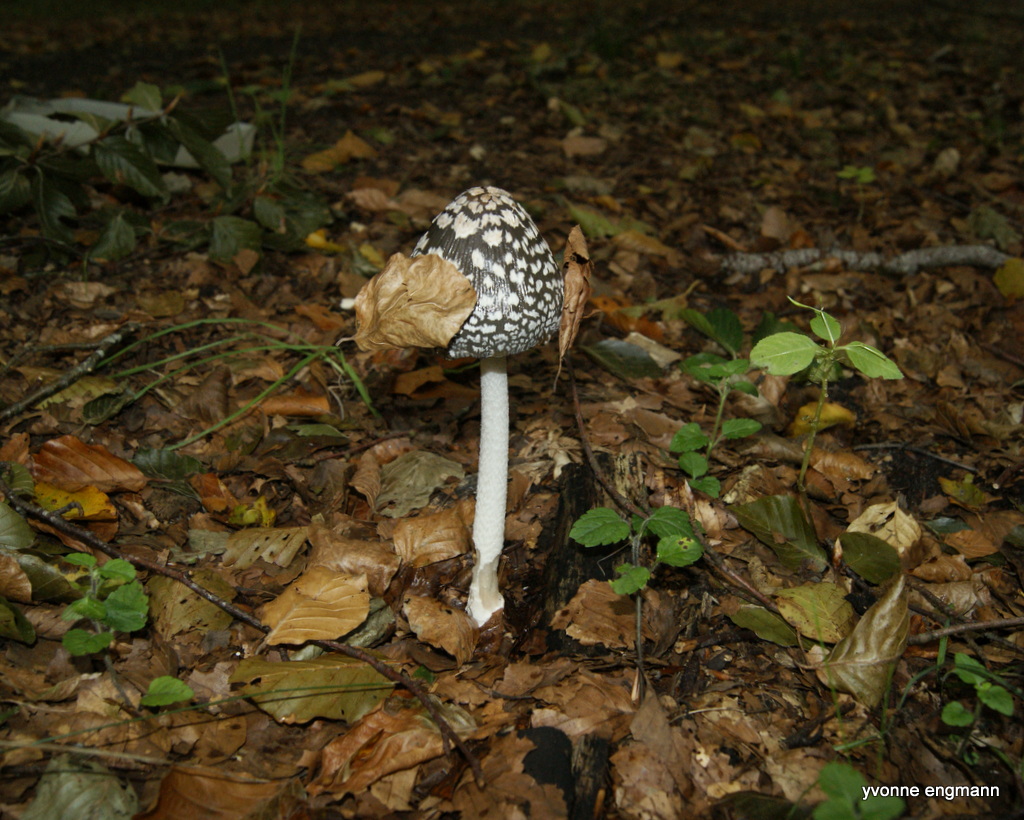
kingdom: Fungi
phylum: Basidiomycota
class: Agaricomycetes
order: Agaricales
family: Psathyrellaceae
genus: Coprinopsis
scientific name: Coprinopsis picacea
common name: skade-blækhat
